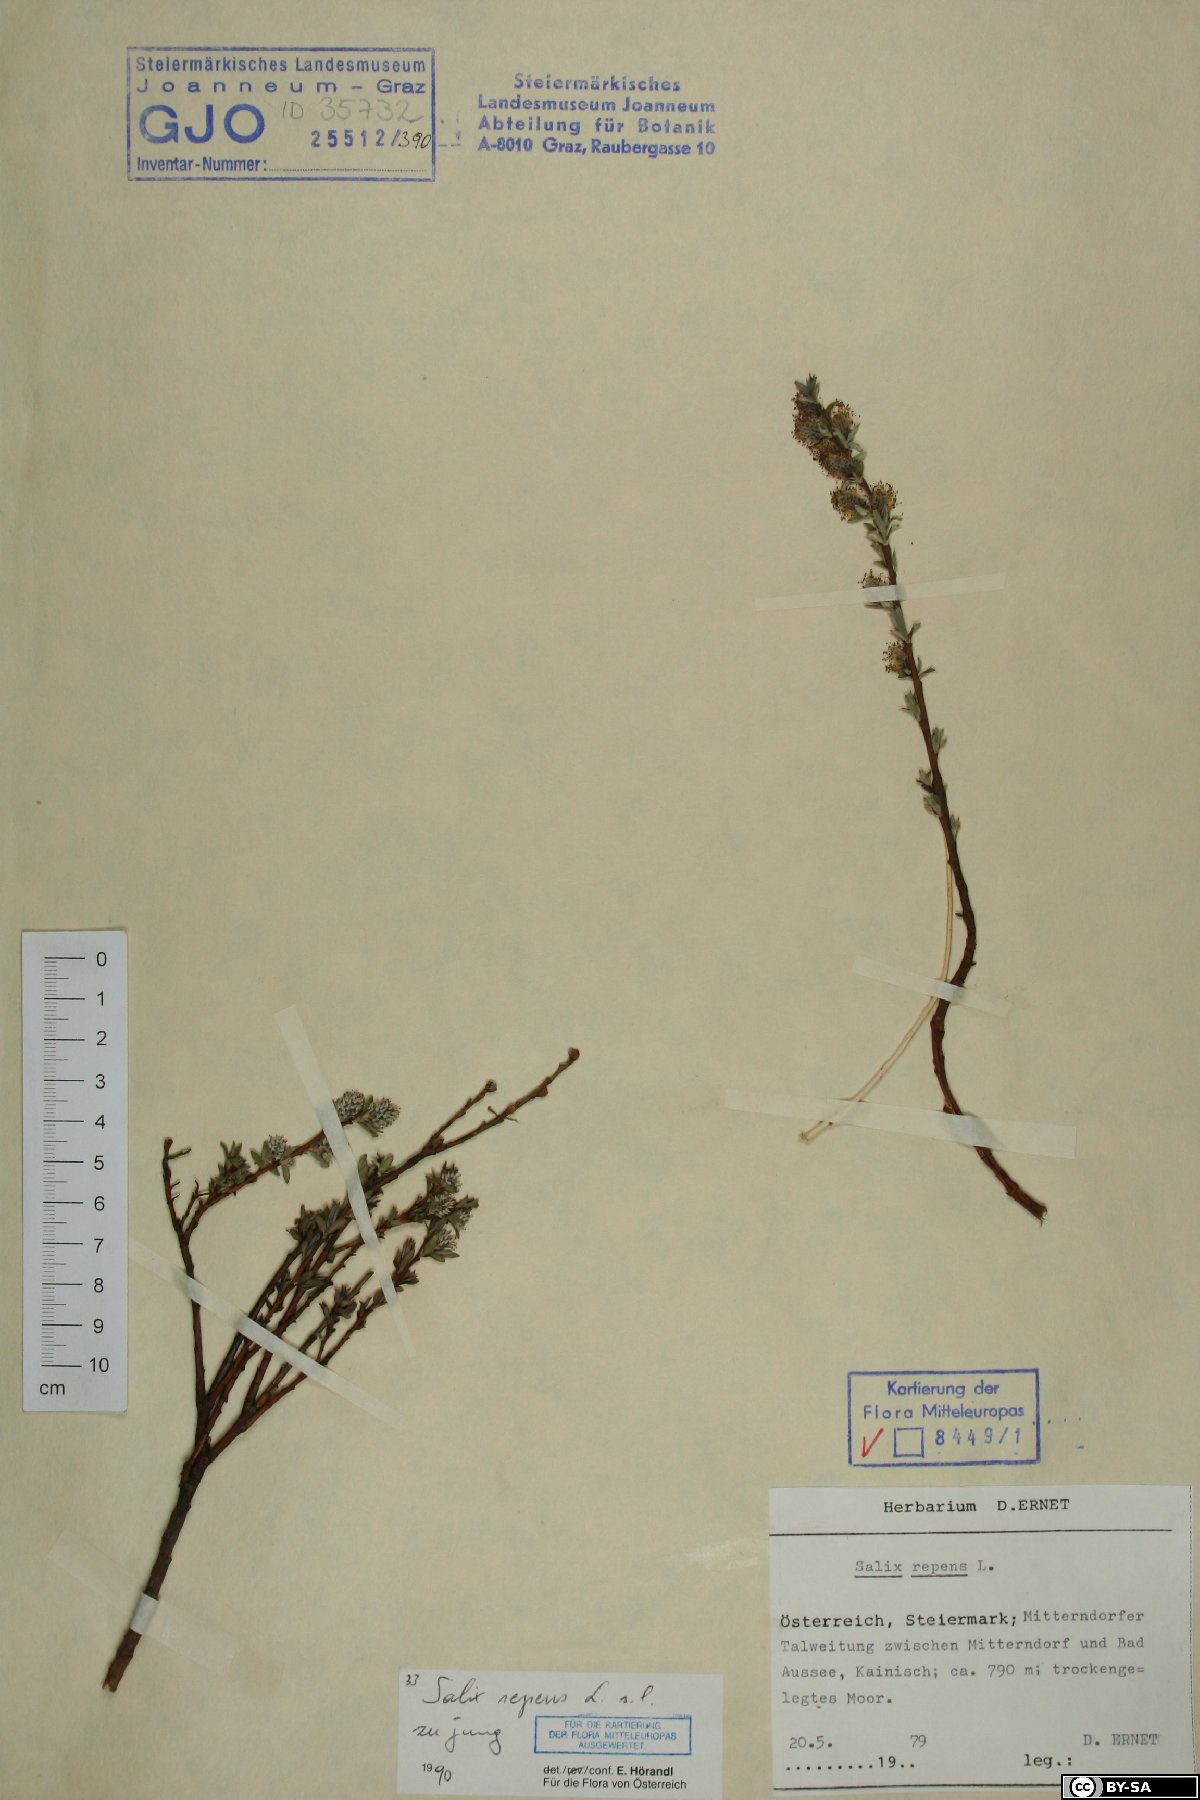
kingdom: Plantae
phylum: Tracheophyta
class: Magnoliopsida
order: Malpighiales
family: Salicaceae
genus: Salix
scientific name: Salix repens
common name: Creeping willow
